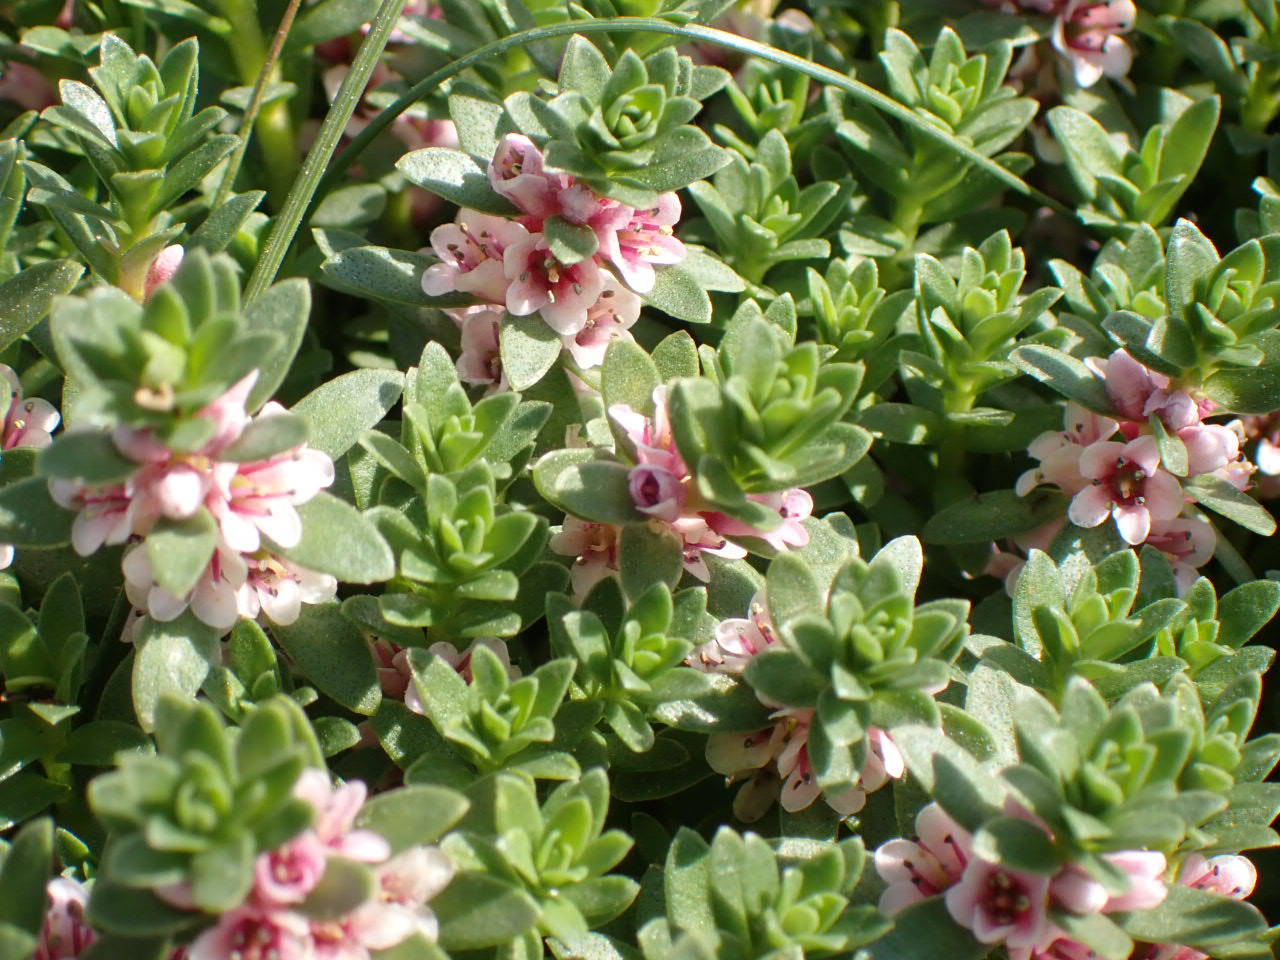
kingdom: Plantae
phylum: Tracheophyta
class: Magnoliopsida
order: Ericales
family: Primulaceae
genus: Lysimachia
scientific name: Lysimachia maritima
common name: Sandkryb
